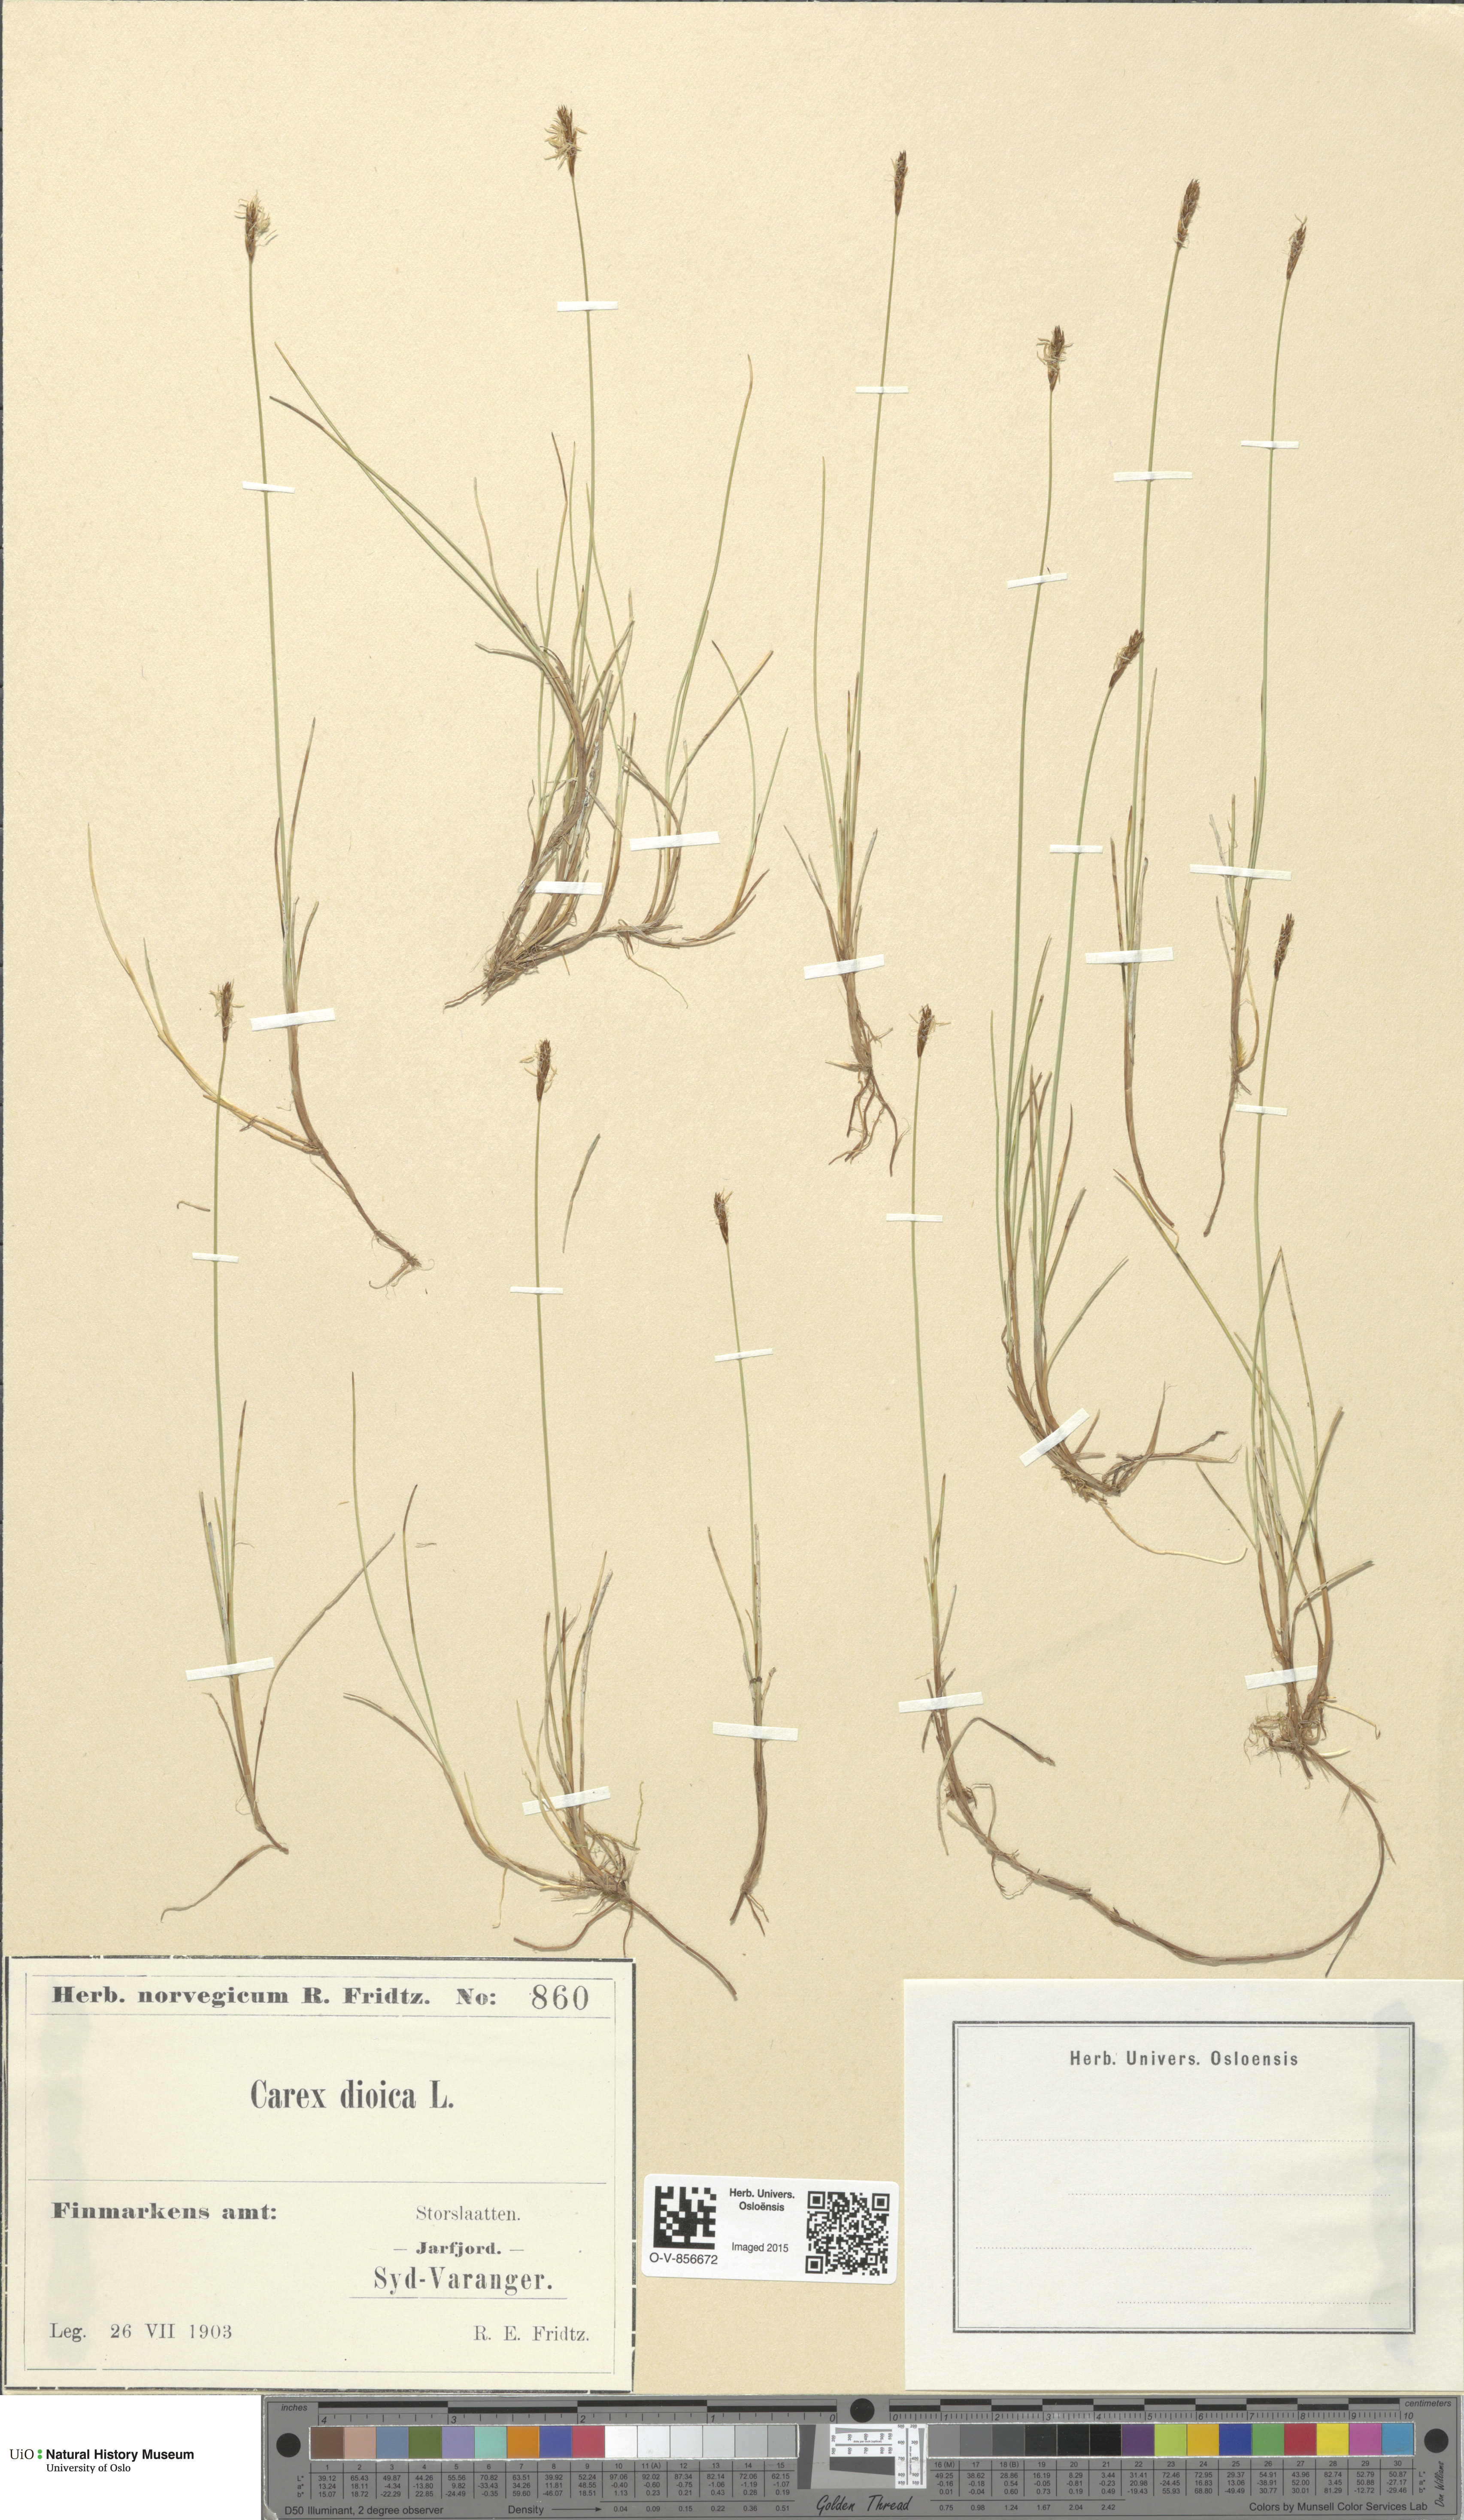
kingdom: Plantae
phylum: Tracheophyta
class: Liliopsida
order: Poales
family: Cyperaceae
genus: Carex
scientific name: Carex dioica
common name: Dioecious sedge
